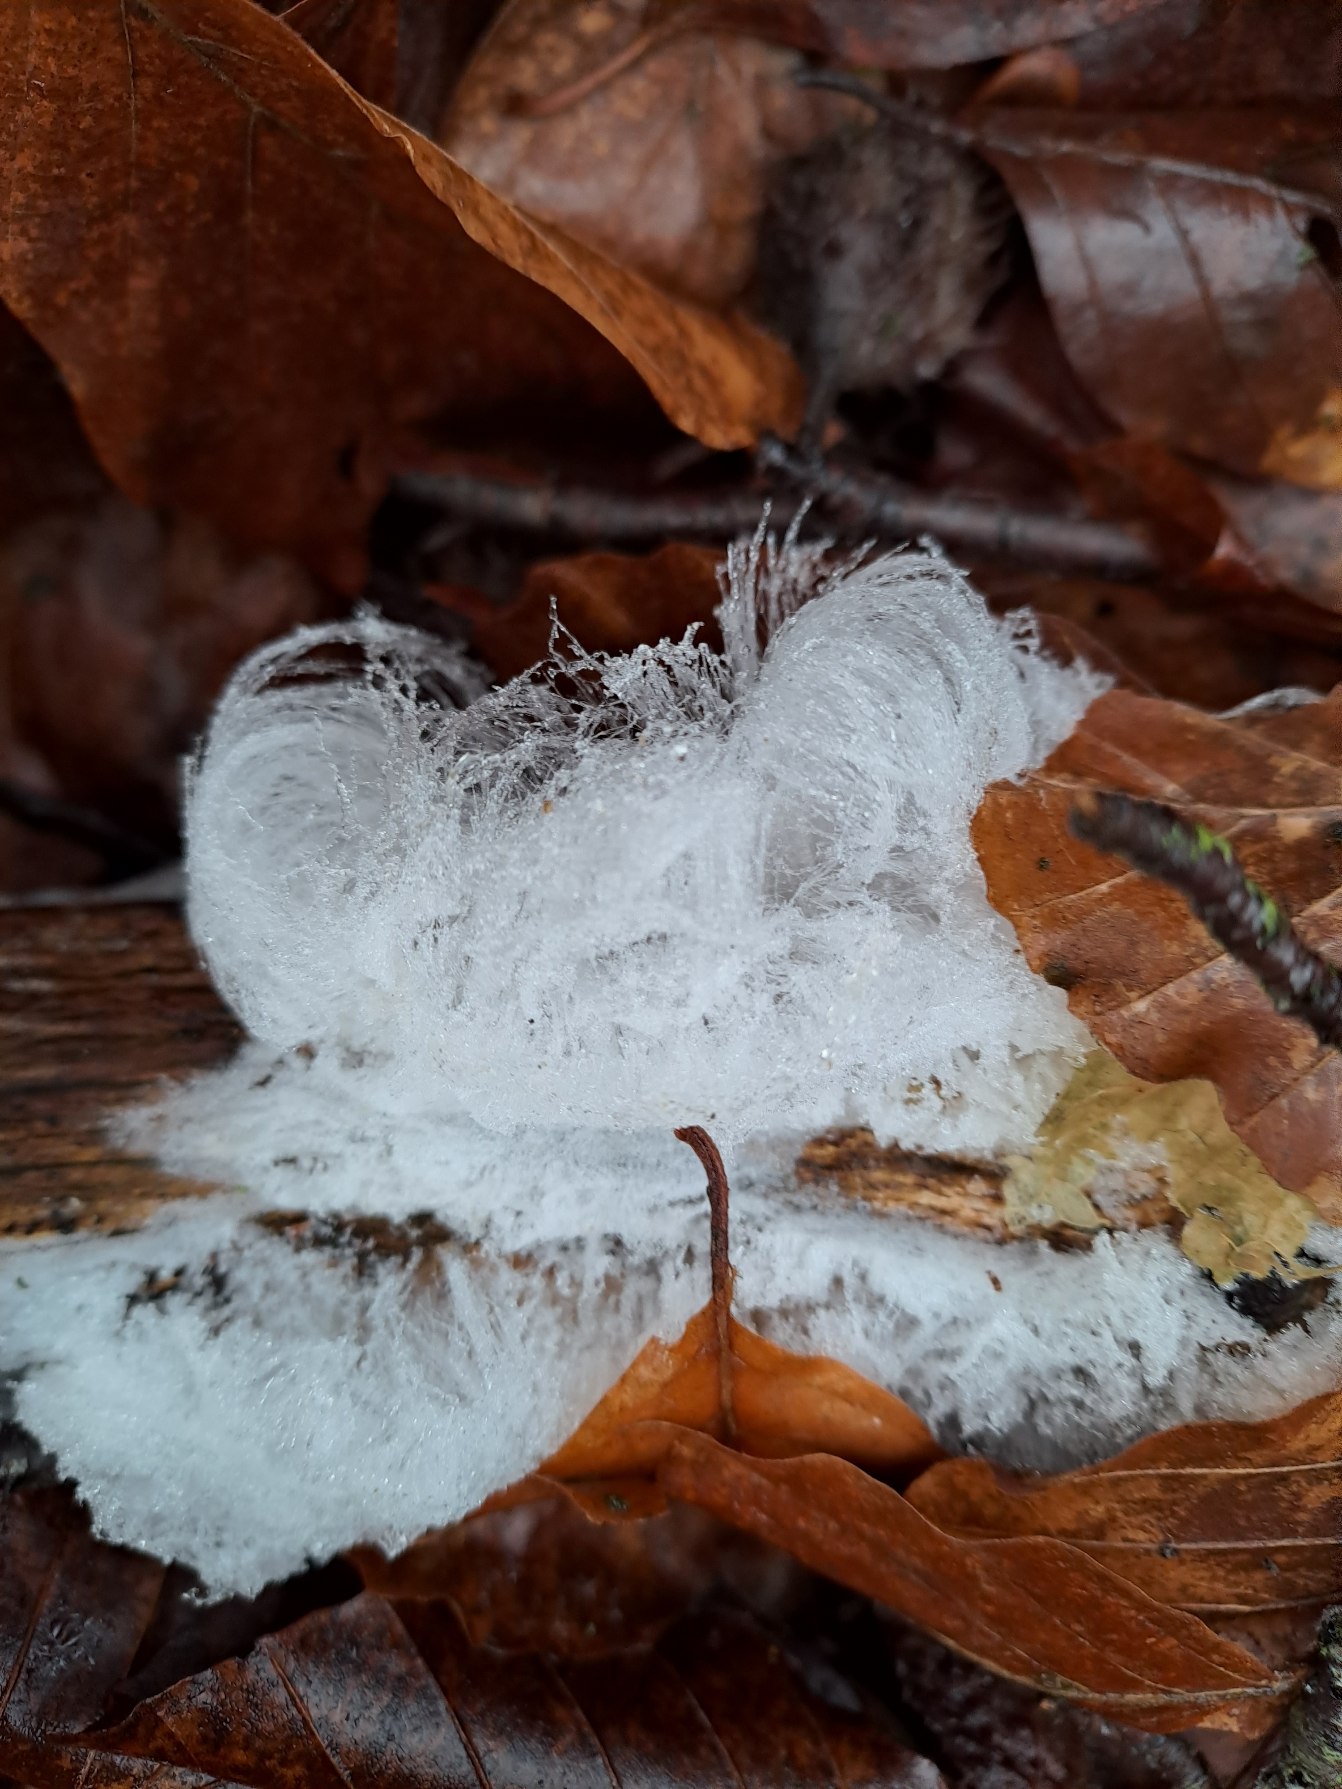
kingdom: Fungi
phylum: Basidiomycota
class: Tremellomycetes
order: Tremellales
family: Exidiaceae
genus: Exidiopsis
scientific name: Exidiopsis effusa
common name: Smuk bævrehinde
